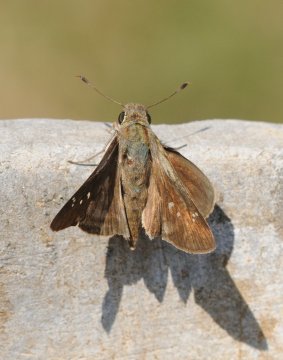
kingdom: Animalia
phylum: Arthropoda
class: Insecta
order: Lepidoptera
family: Hesperiidae
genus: Baoris
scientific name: Baoris fatuellus
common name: Long-horned Swift
